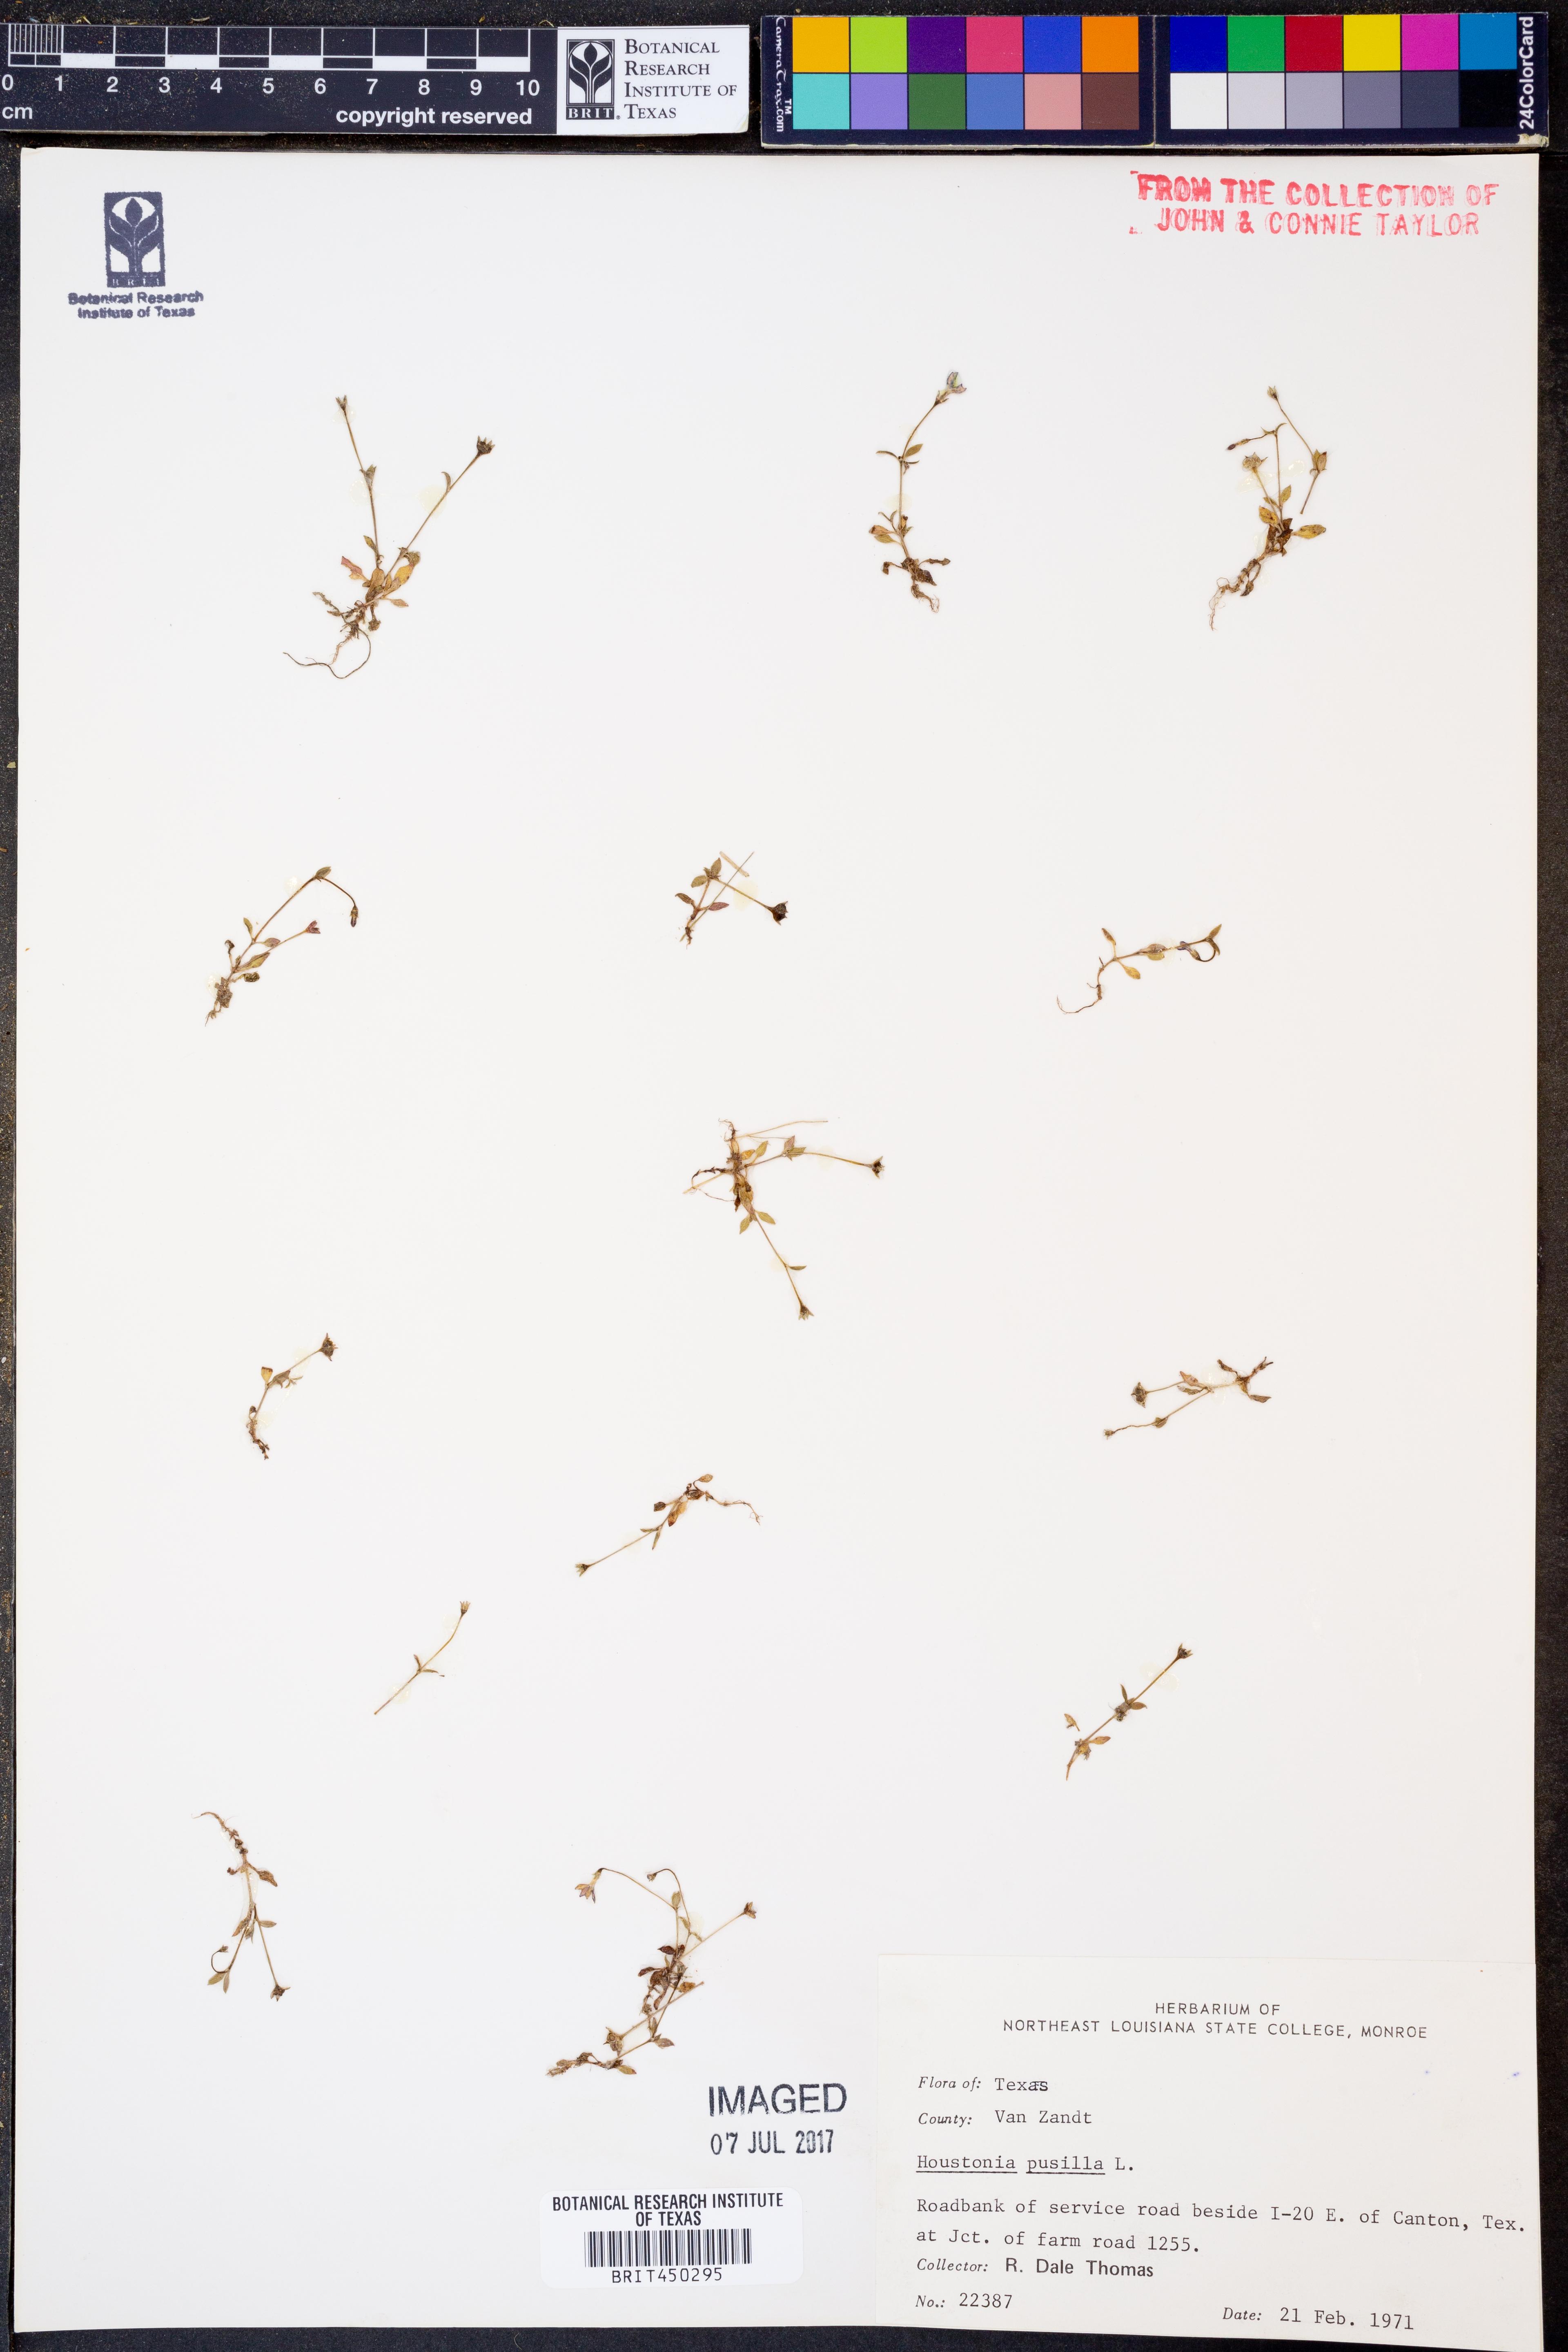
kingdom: Plantae
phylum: Tracheophyta
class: Magnoliopsida
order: Gentianales
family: Rubiaceae
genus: Houstonia
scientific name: Houstonia pusilla
